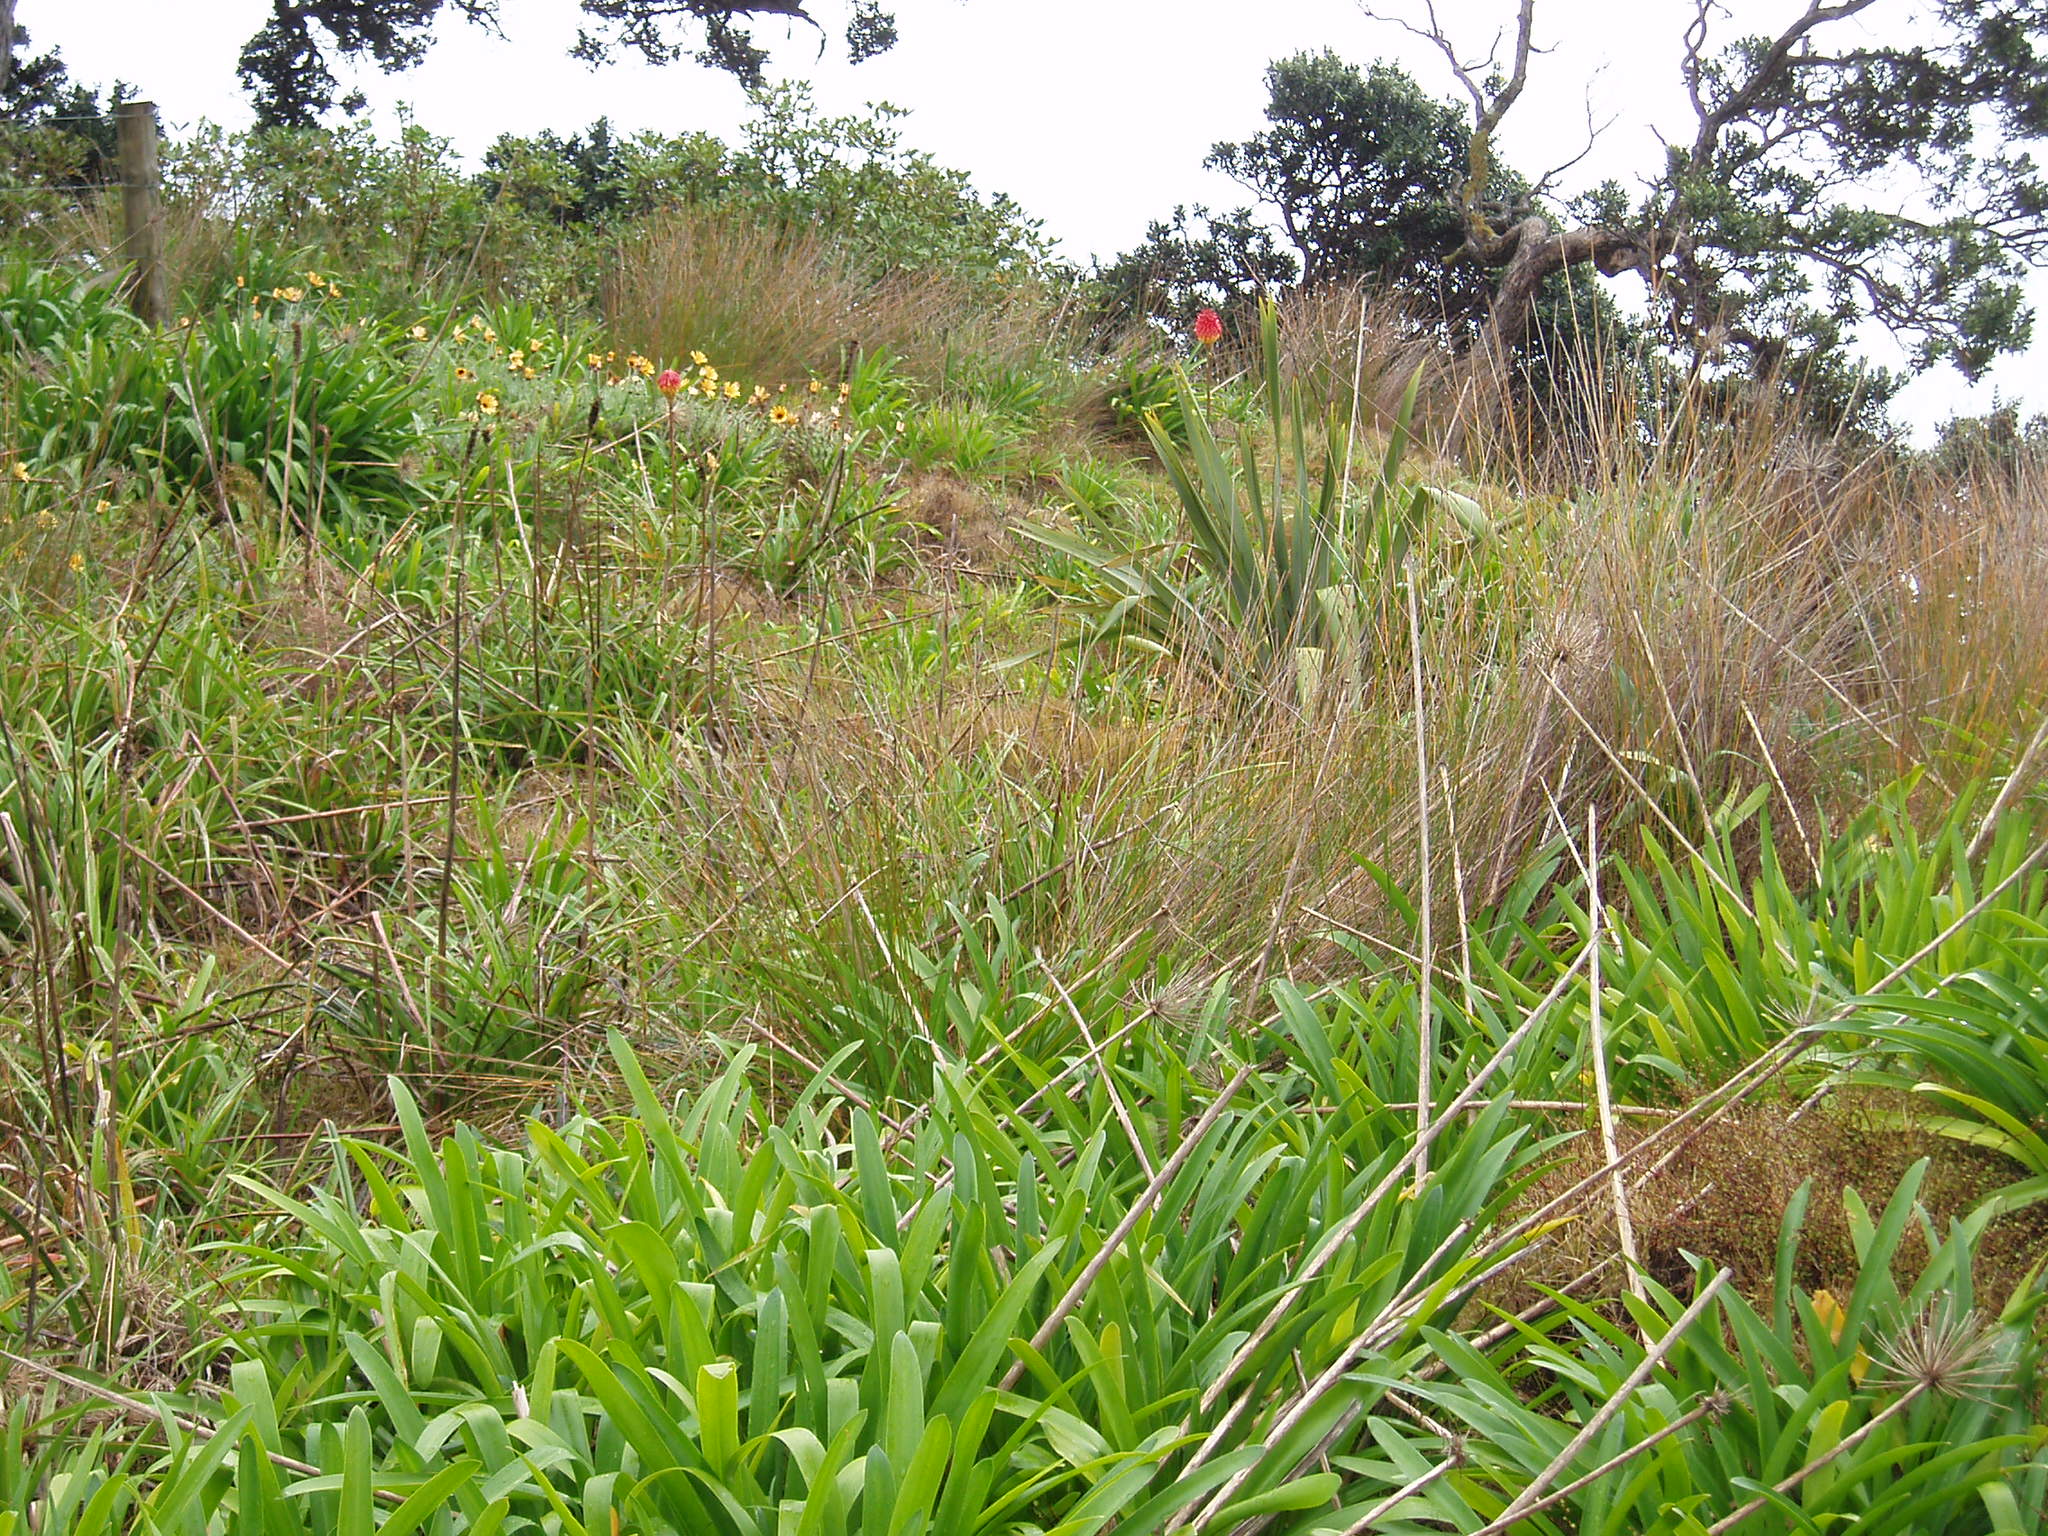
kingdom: Plantae
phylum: Tracheophyta
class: Liliopsida
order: Asparagales
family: Asphodelaceae
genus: Kniphofia
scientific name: Kniphofia uvaria
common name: Red-hot-poker
